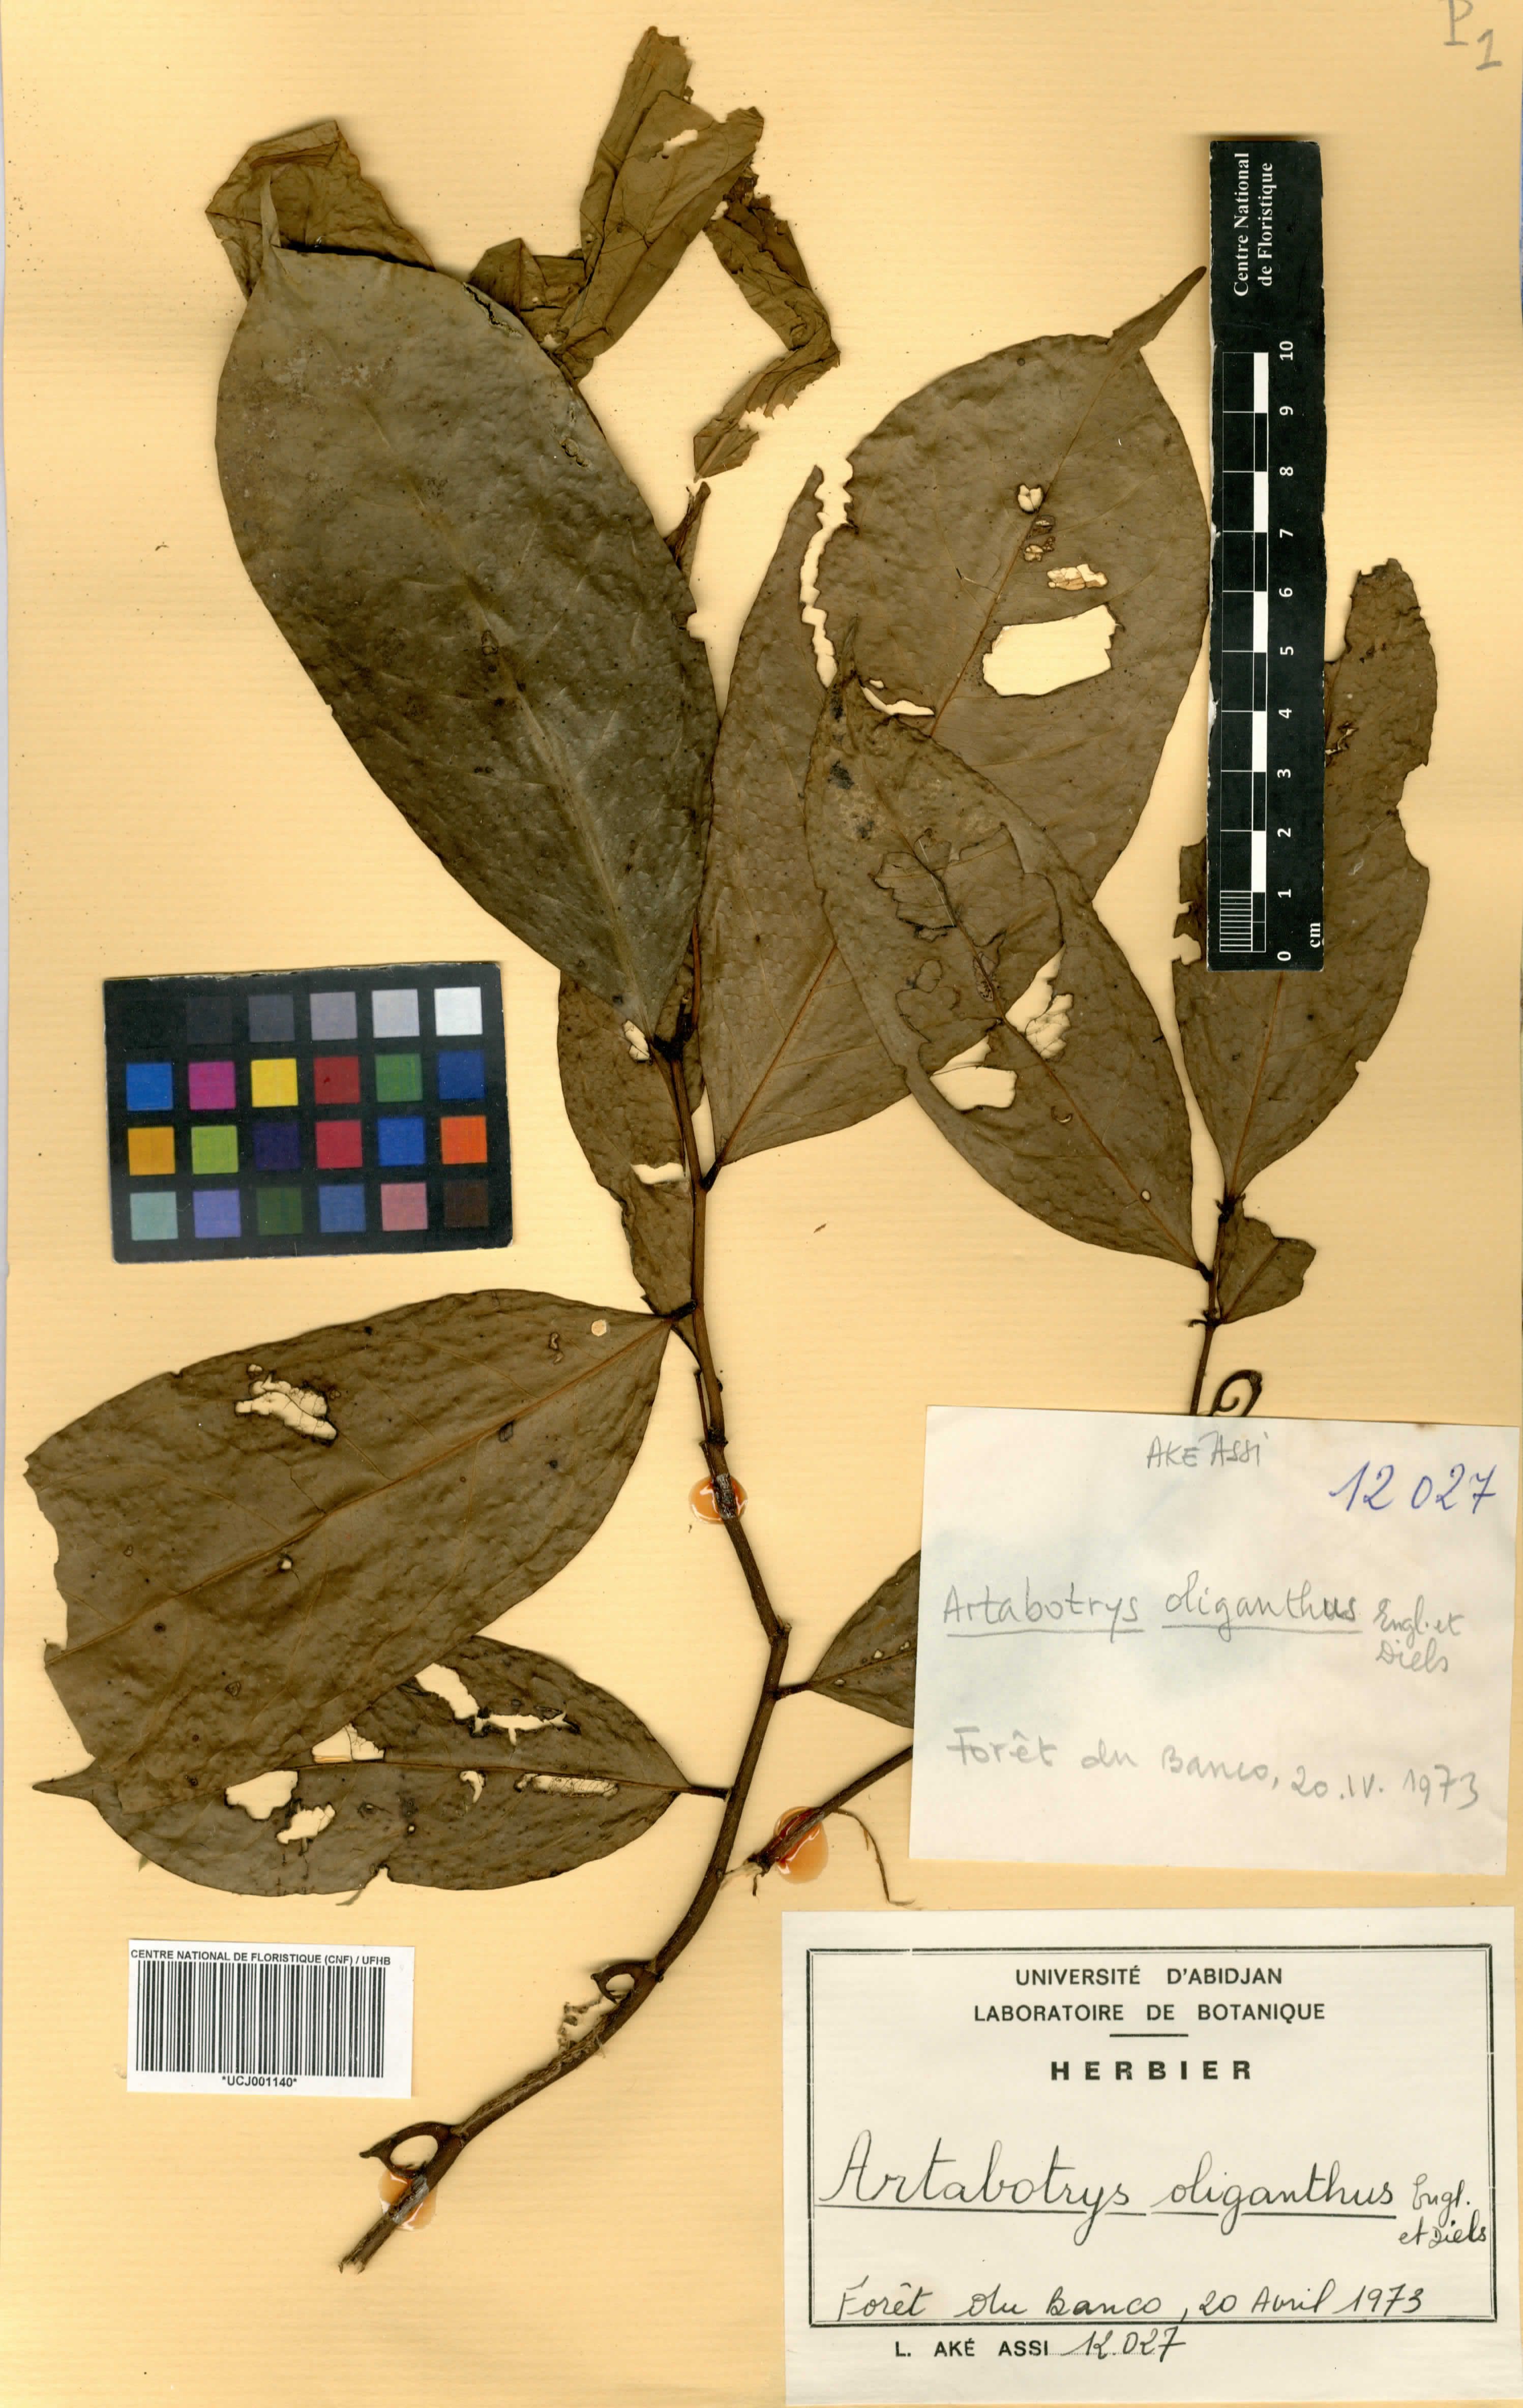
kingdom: Plantae
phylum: Tracheophyta
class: Magnoliopsida
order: Magnoliales
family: Annonaceae
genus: Artabotrys
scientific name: Artabotrys oliganthus
